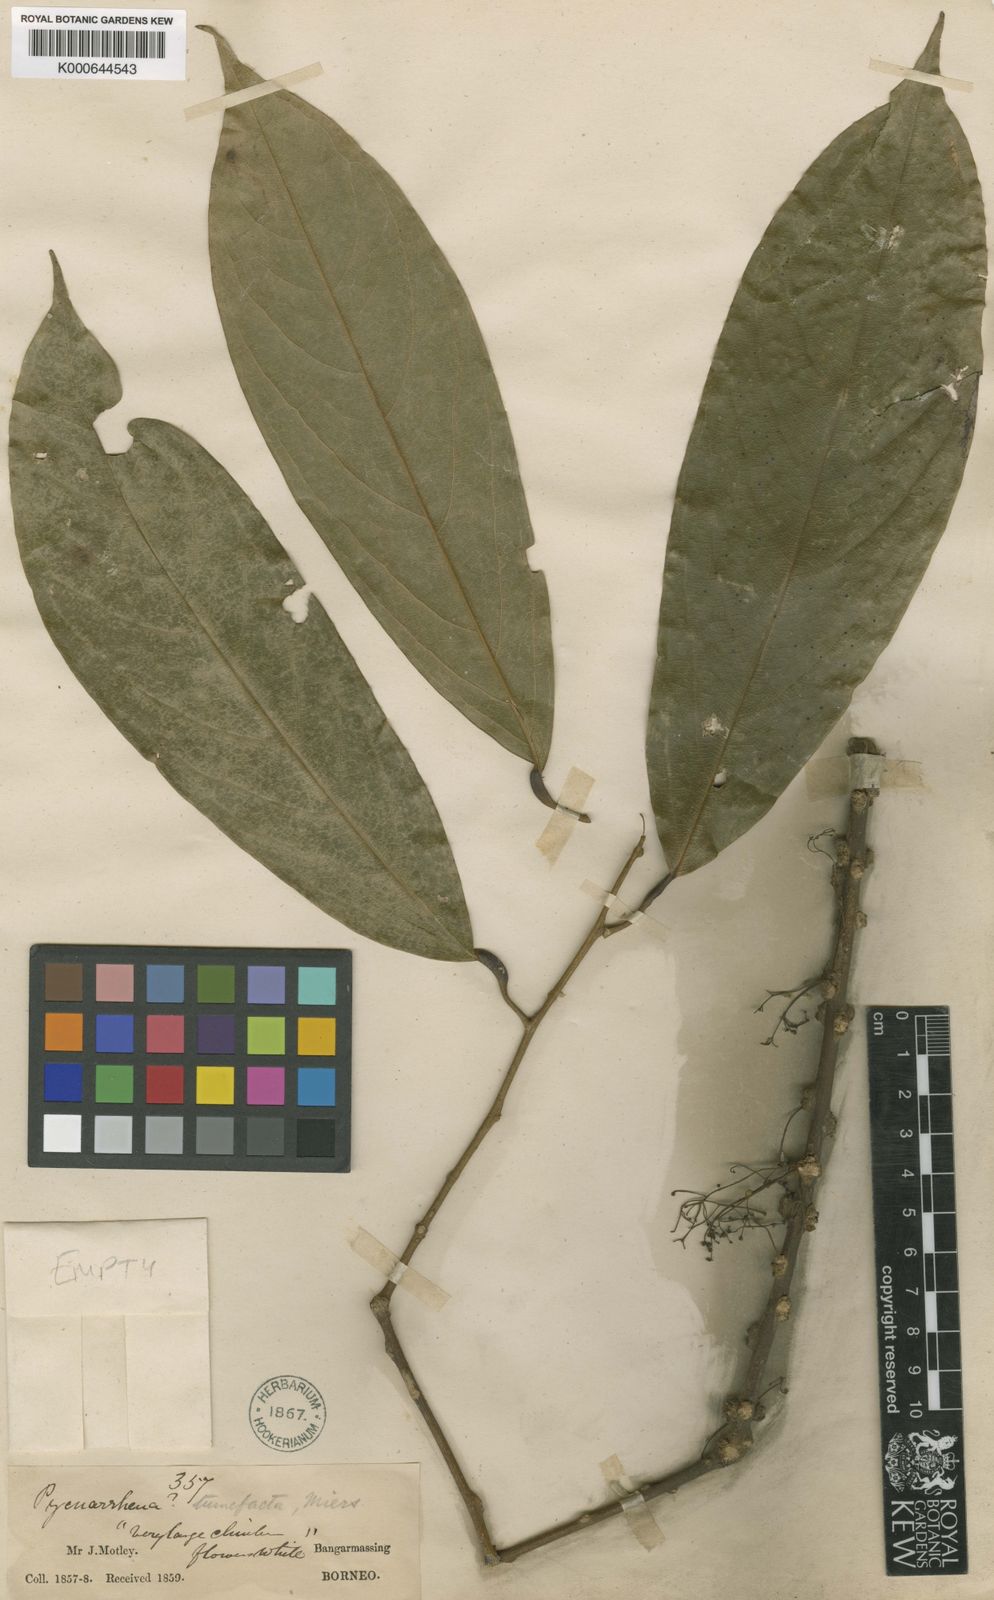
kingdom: Plantae
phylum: Tracheophyta
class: Magnoliopsida
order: Ranunculales
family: Menispermaceae
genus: Pycnarrhena
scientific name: Pycnarrhena tumefacta
